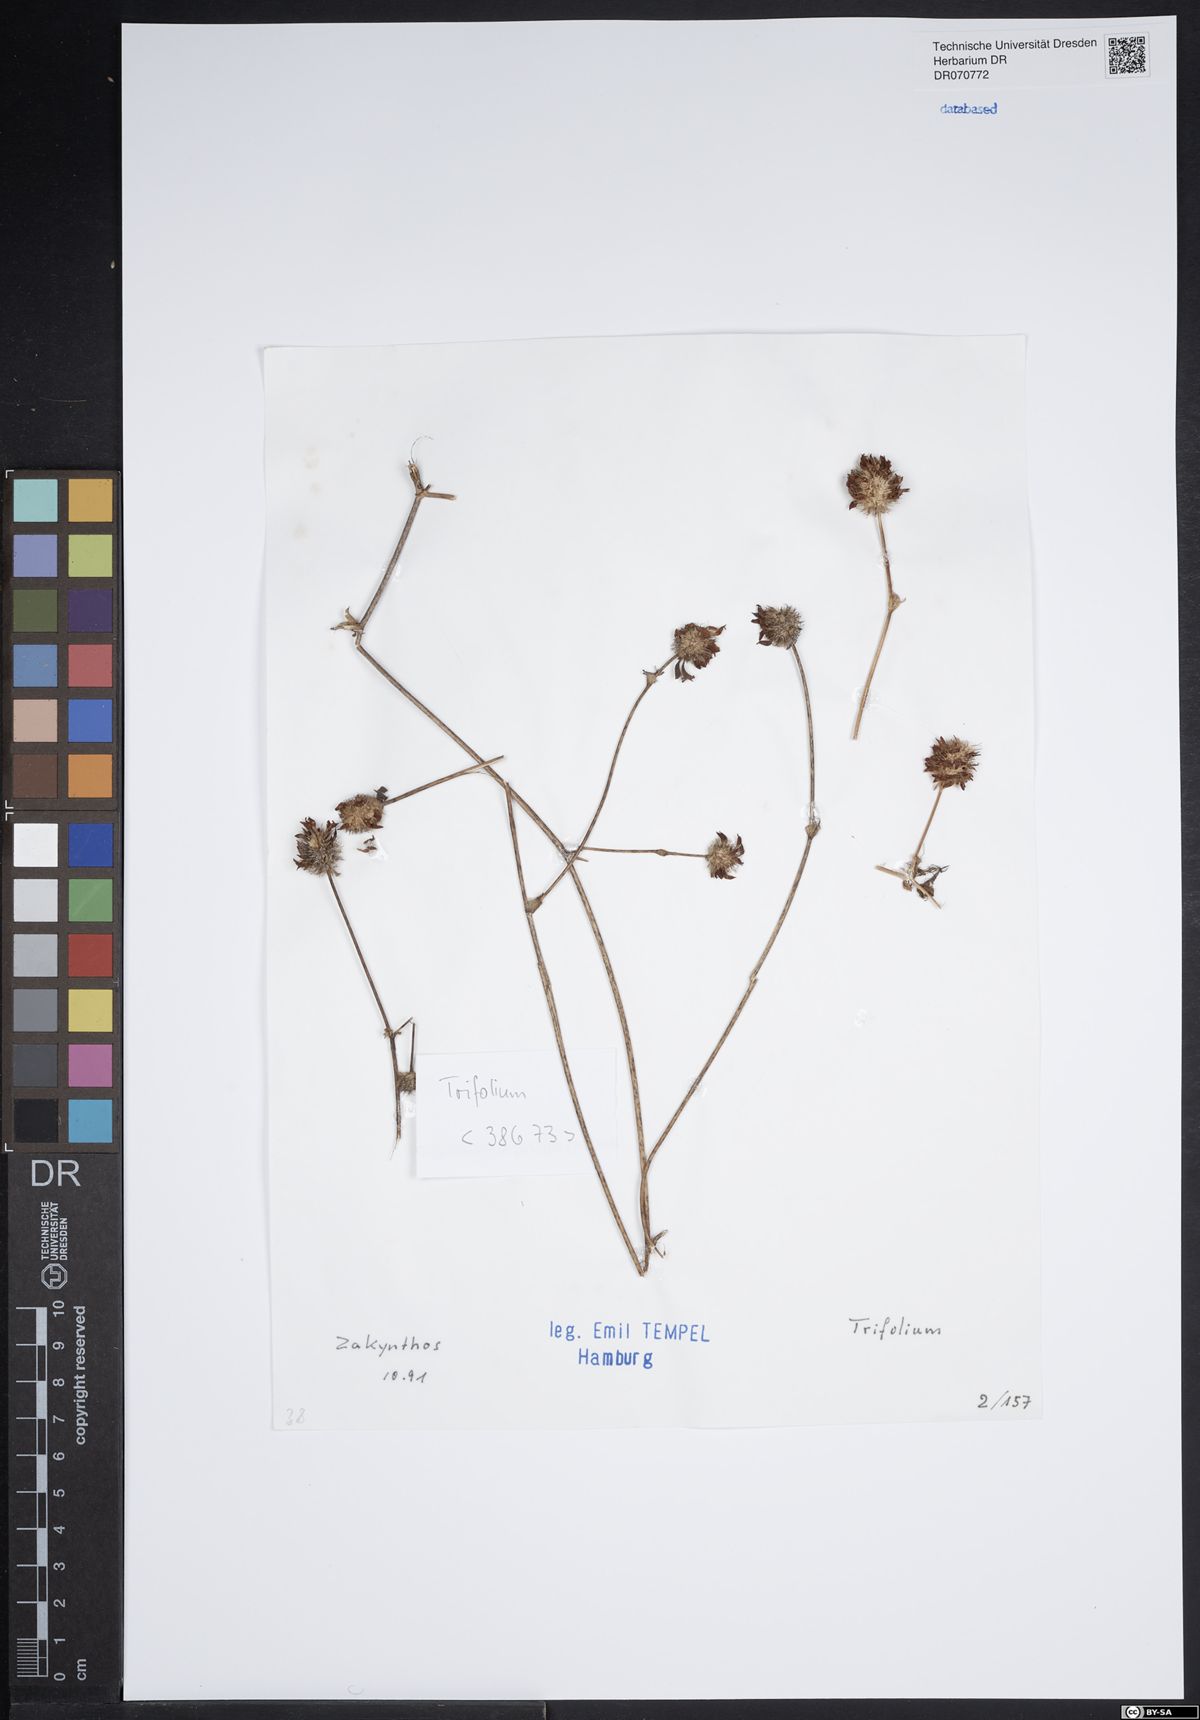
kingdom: Plantae
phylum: Tracheophyta
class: Magnoliopsida
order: Fabales
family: Fabaceae
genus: Trifolium
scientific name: Trifolium
